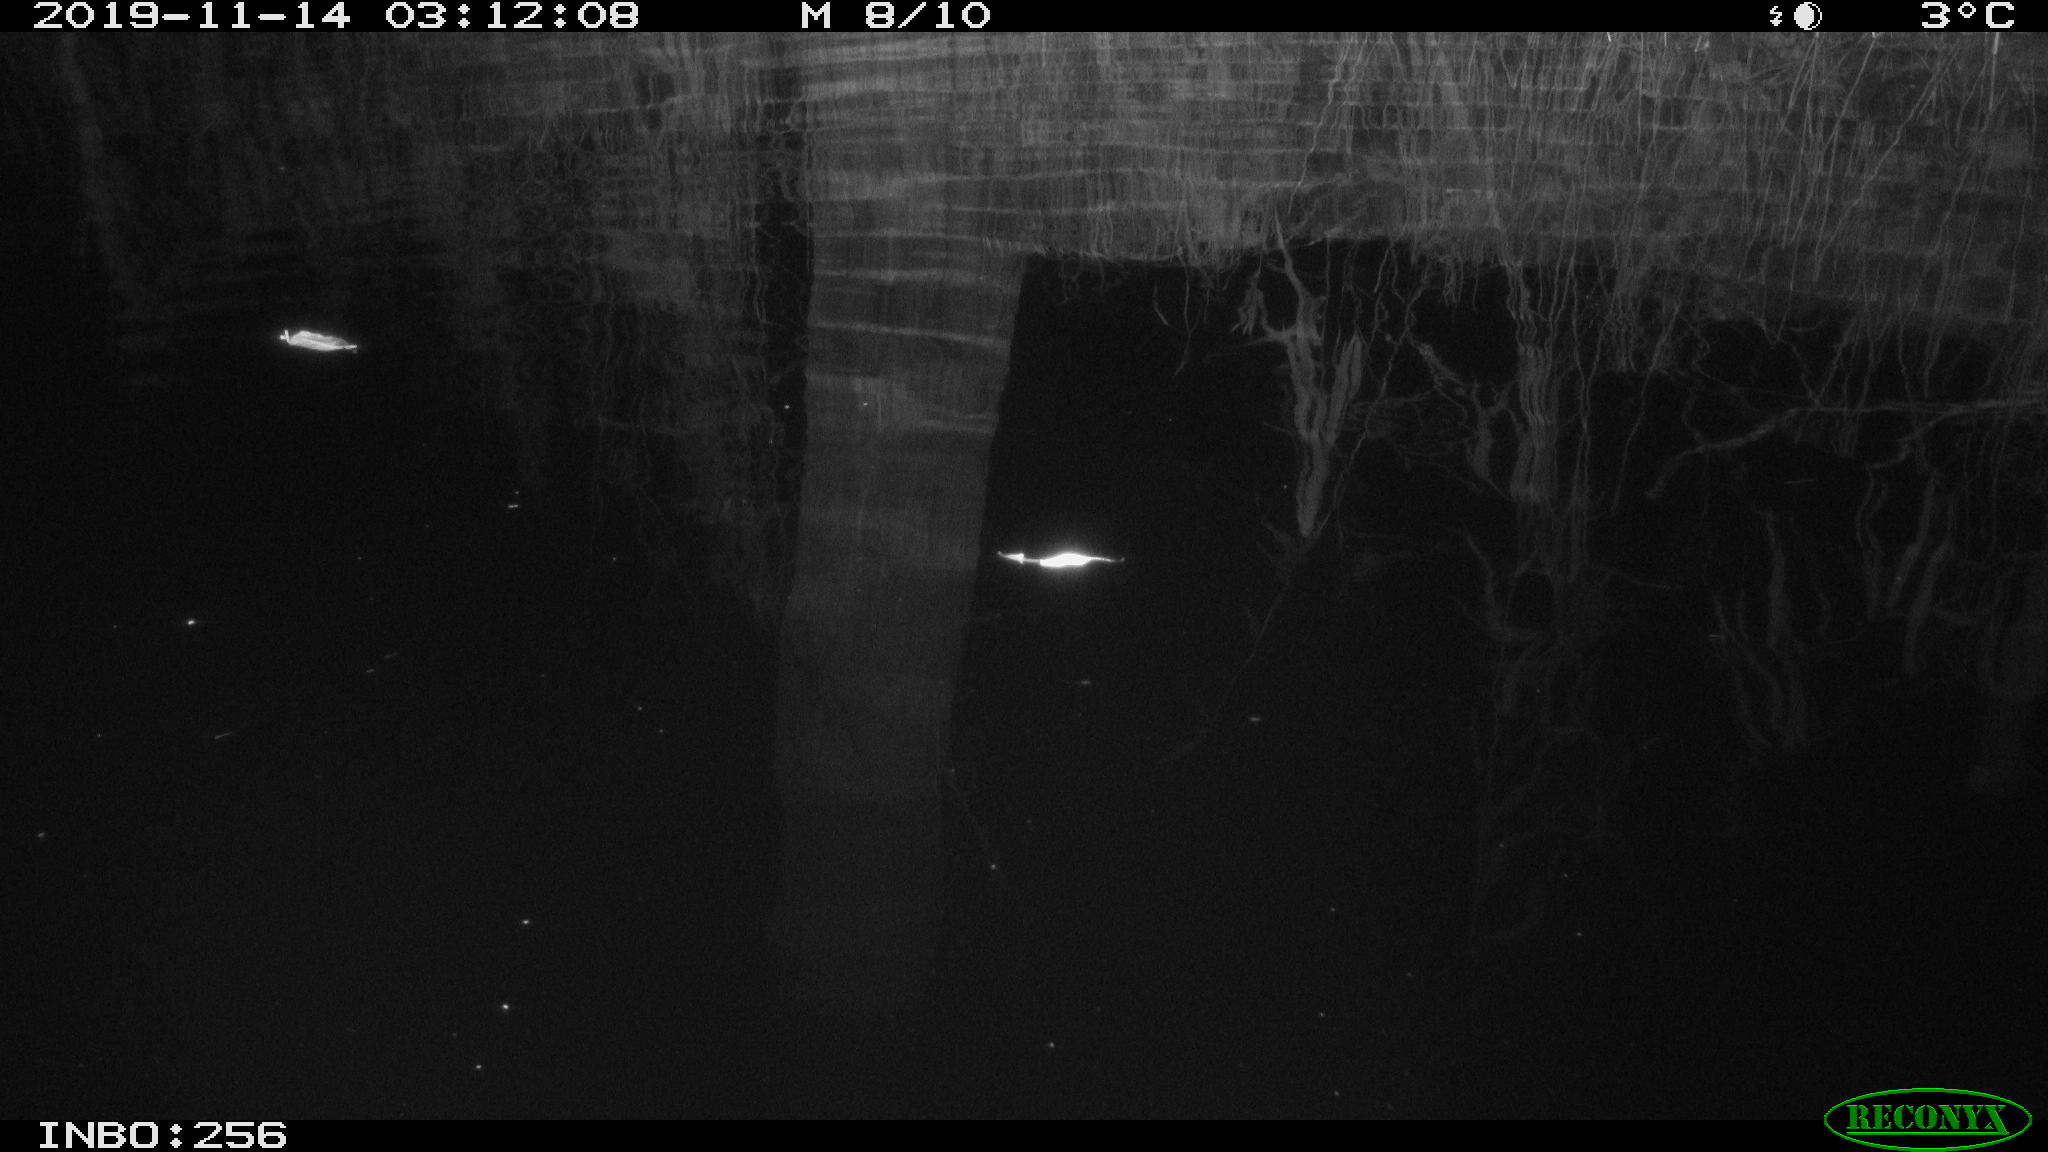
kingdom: Animalia
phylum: Chordata
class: Mammalia
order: Rodentia
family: Muridae
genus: Rattus
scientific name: Rattus norvegicus
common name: Brown rat
